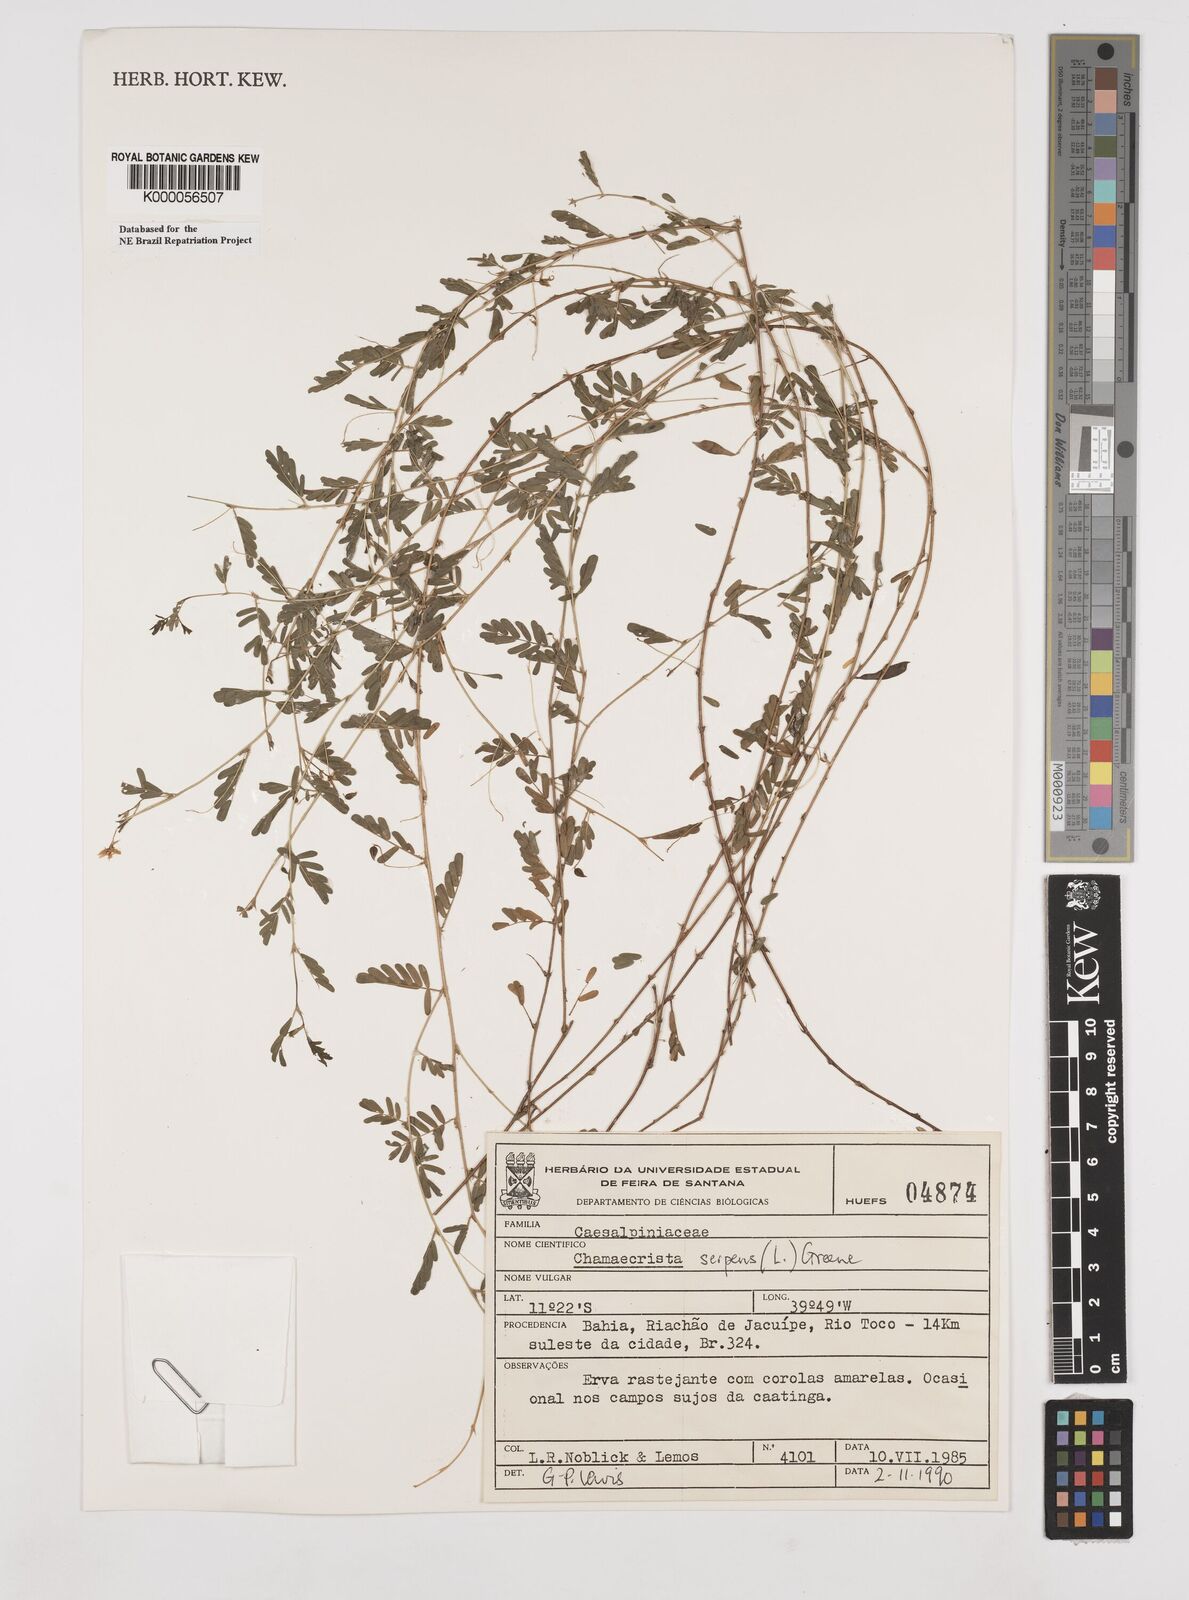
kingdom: Plantae
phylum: Tracheophyta
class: Magnoliopsida
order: Fabales
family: Fabaceae
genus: Chamaecrista
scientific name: Chamaecrista serpens
